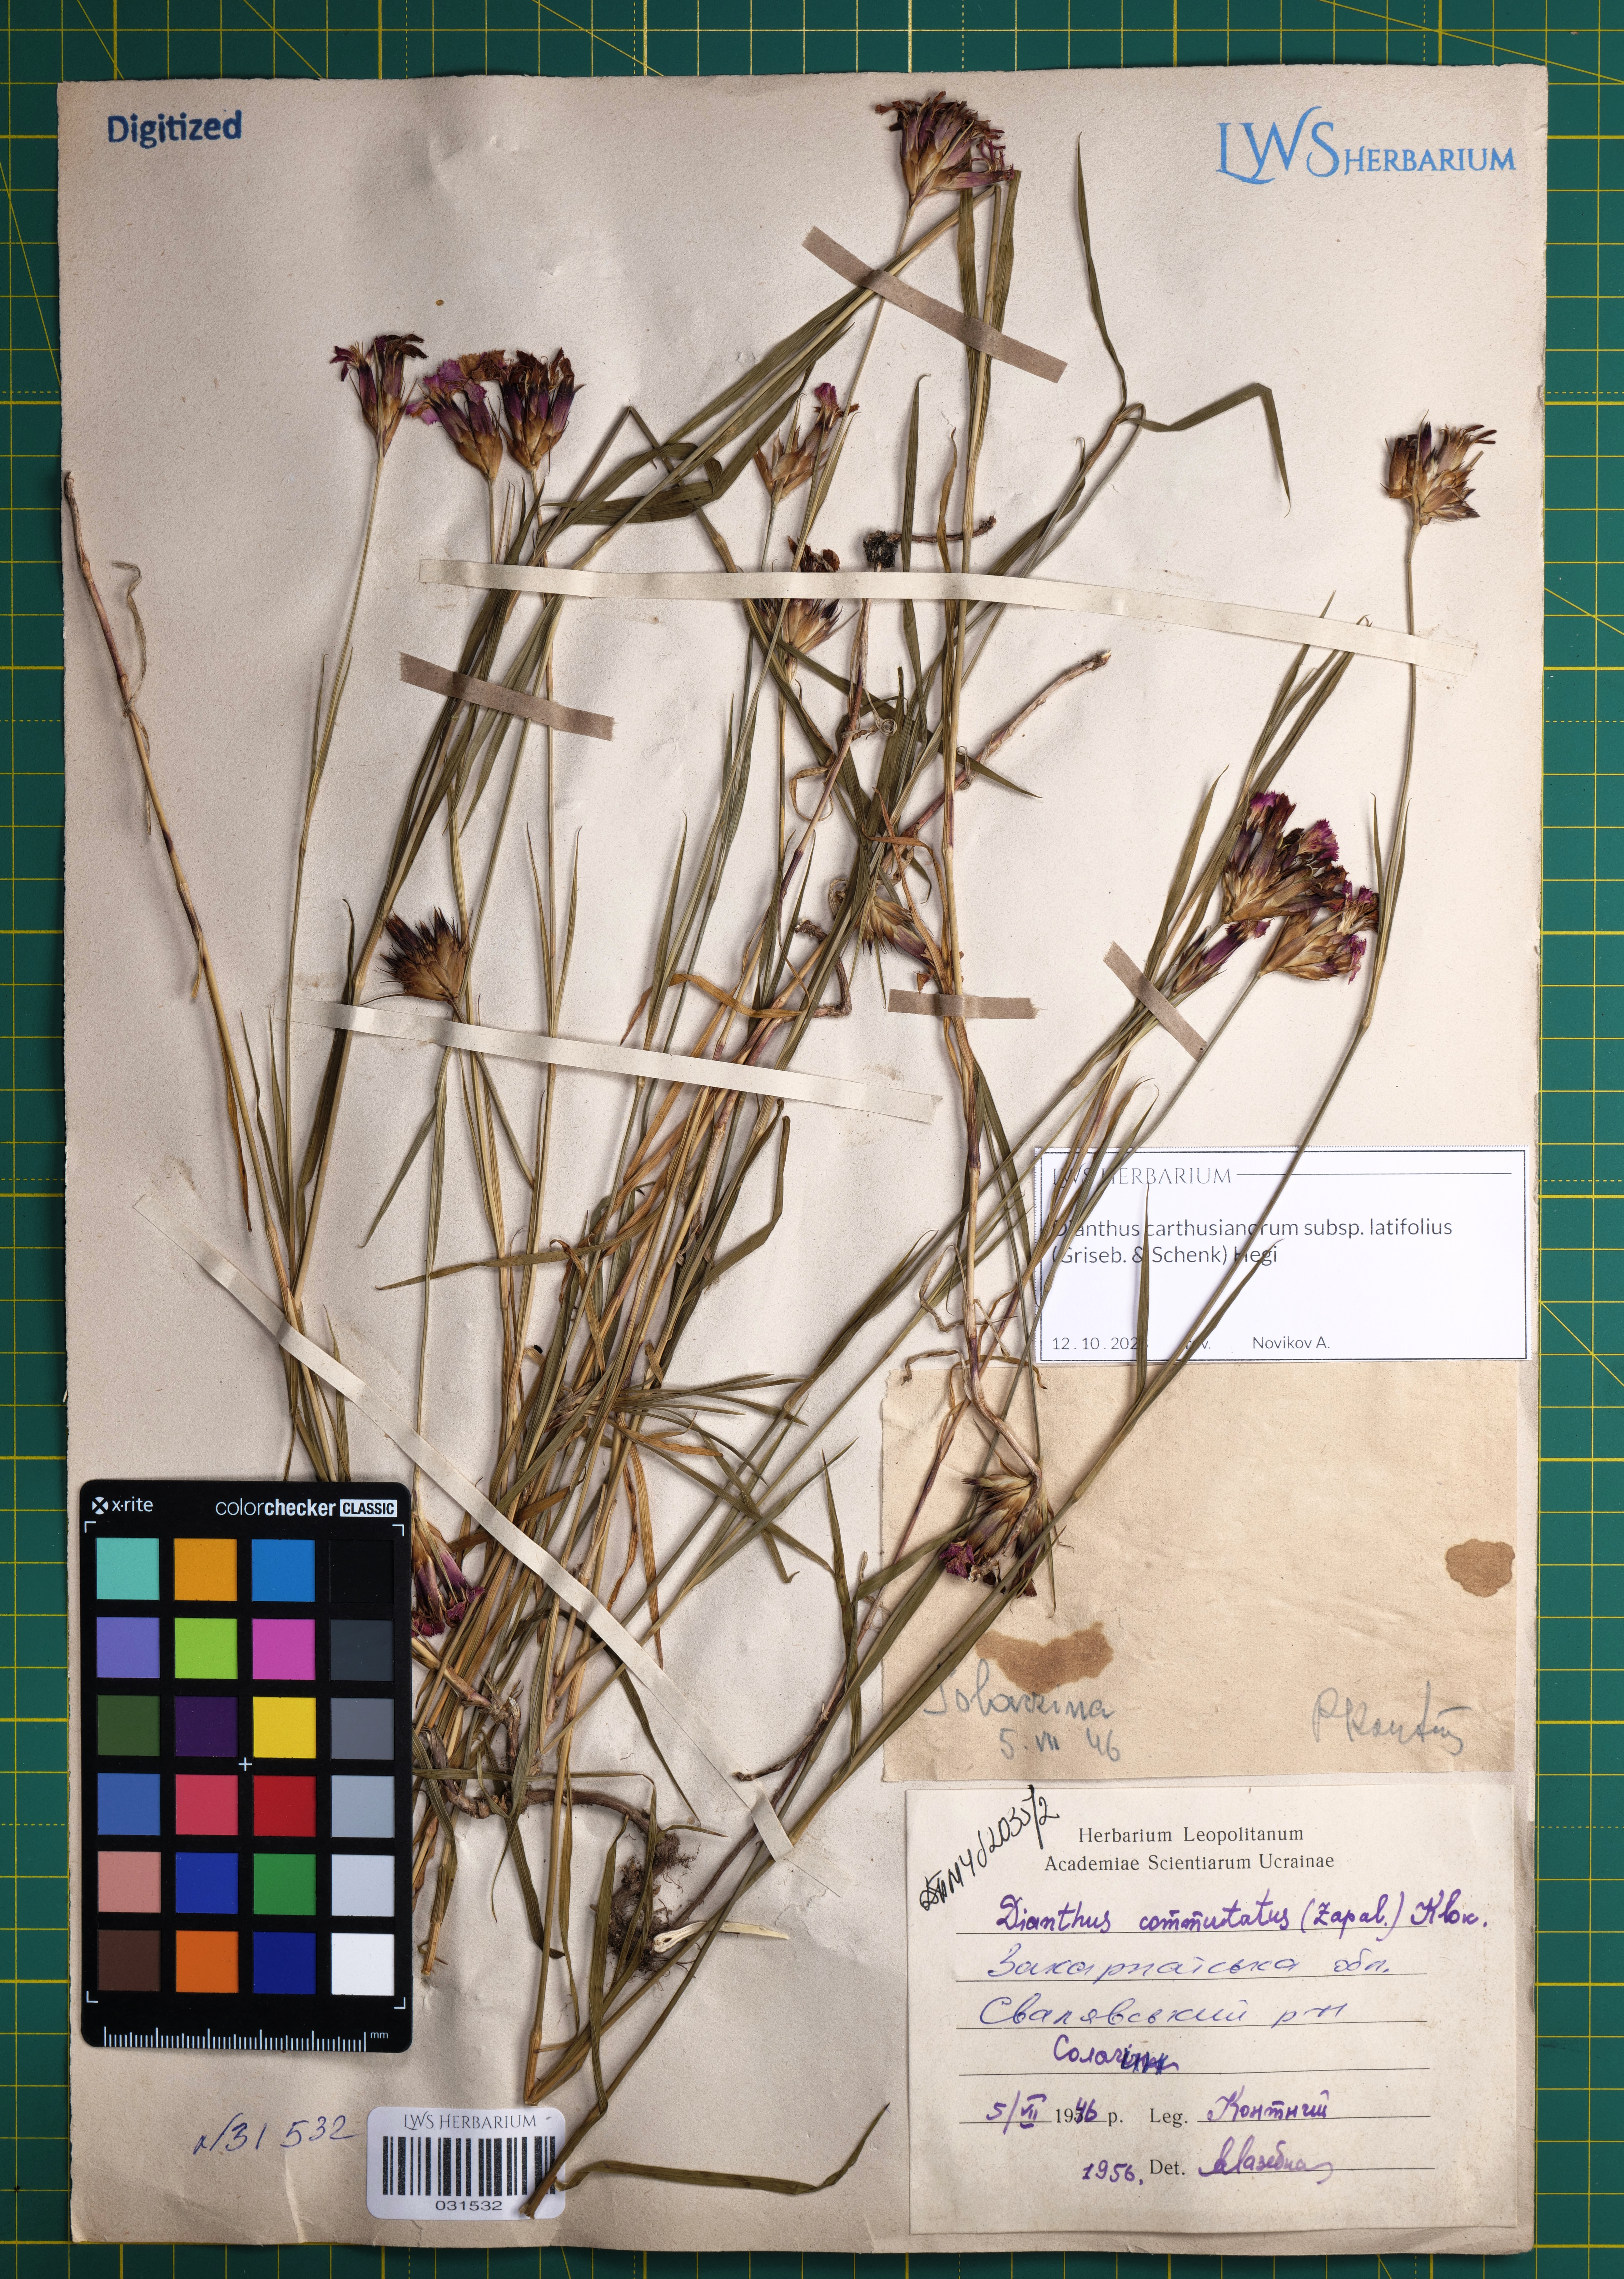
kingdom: Plantae
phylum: Tracheophyta
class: Magnoliopsida
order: Caryophyllales
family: Caryophyllaceae
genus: Dianthus
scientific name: Dianthus carthusianorum
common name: Carthusian pink
